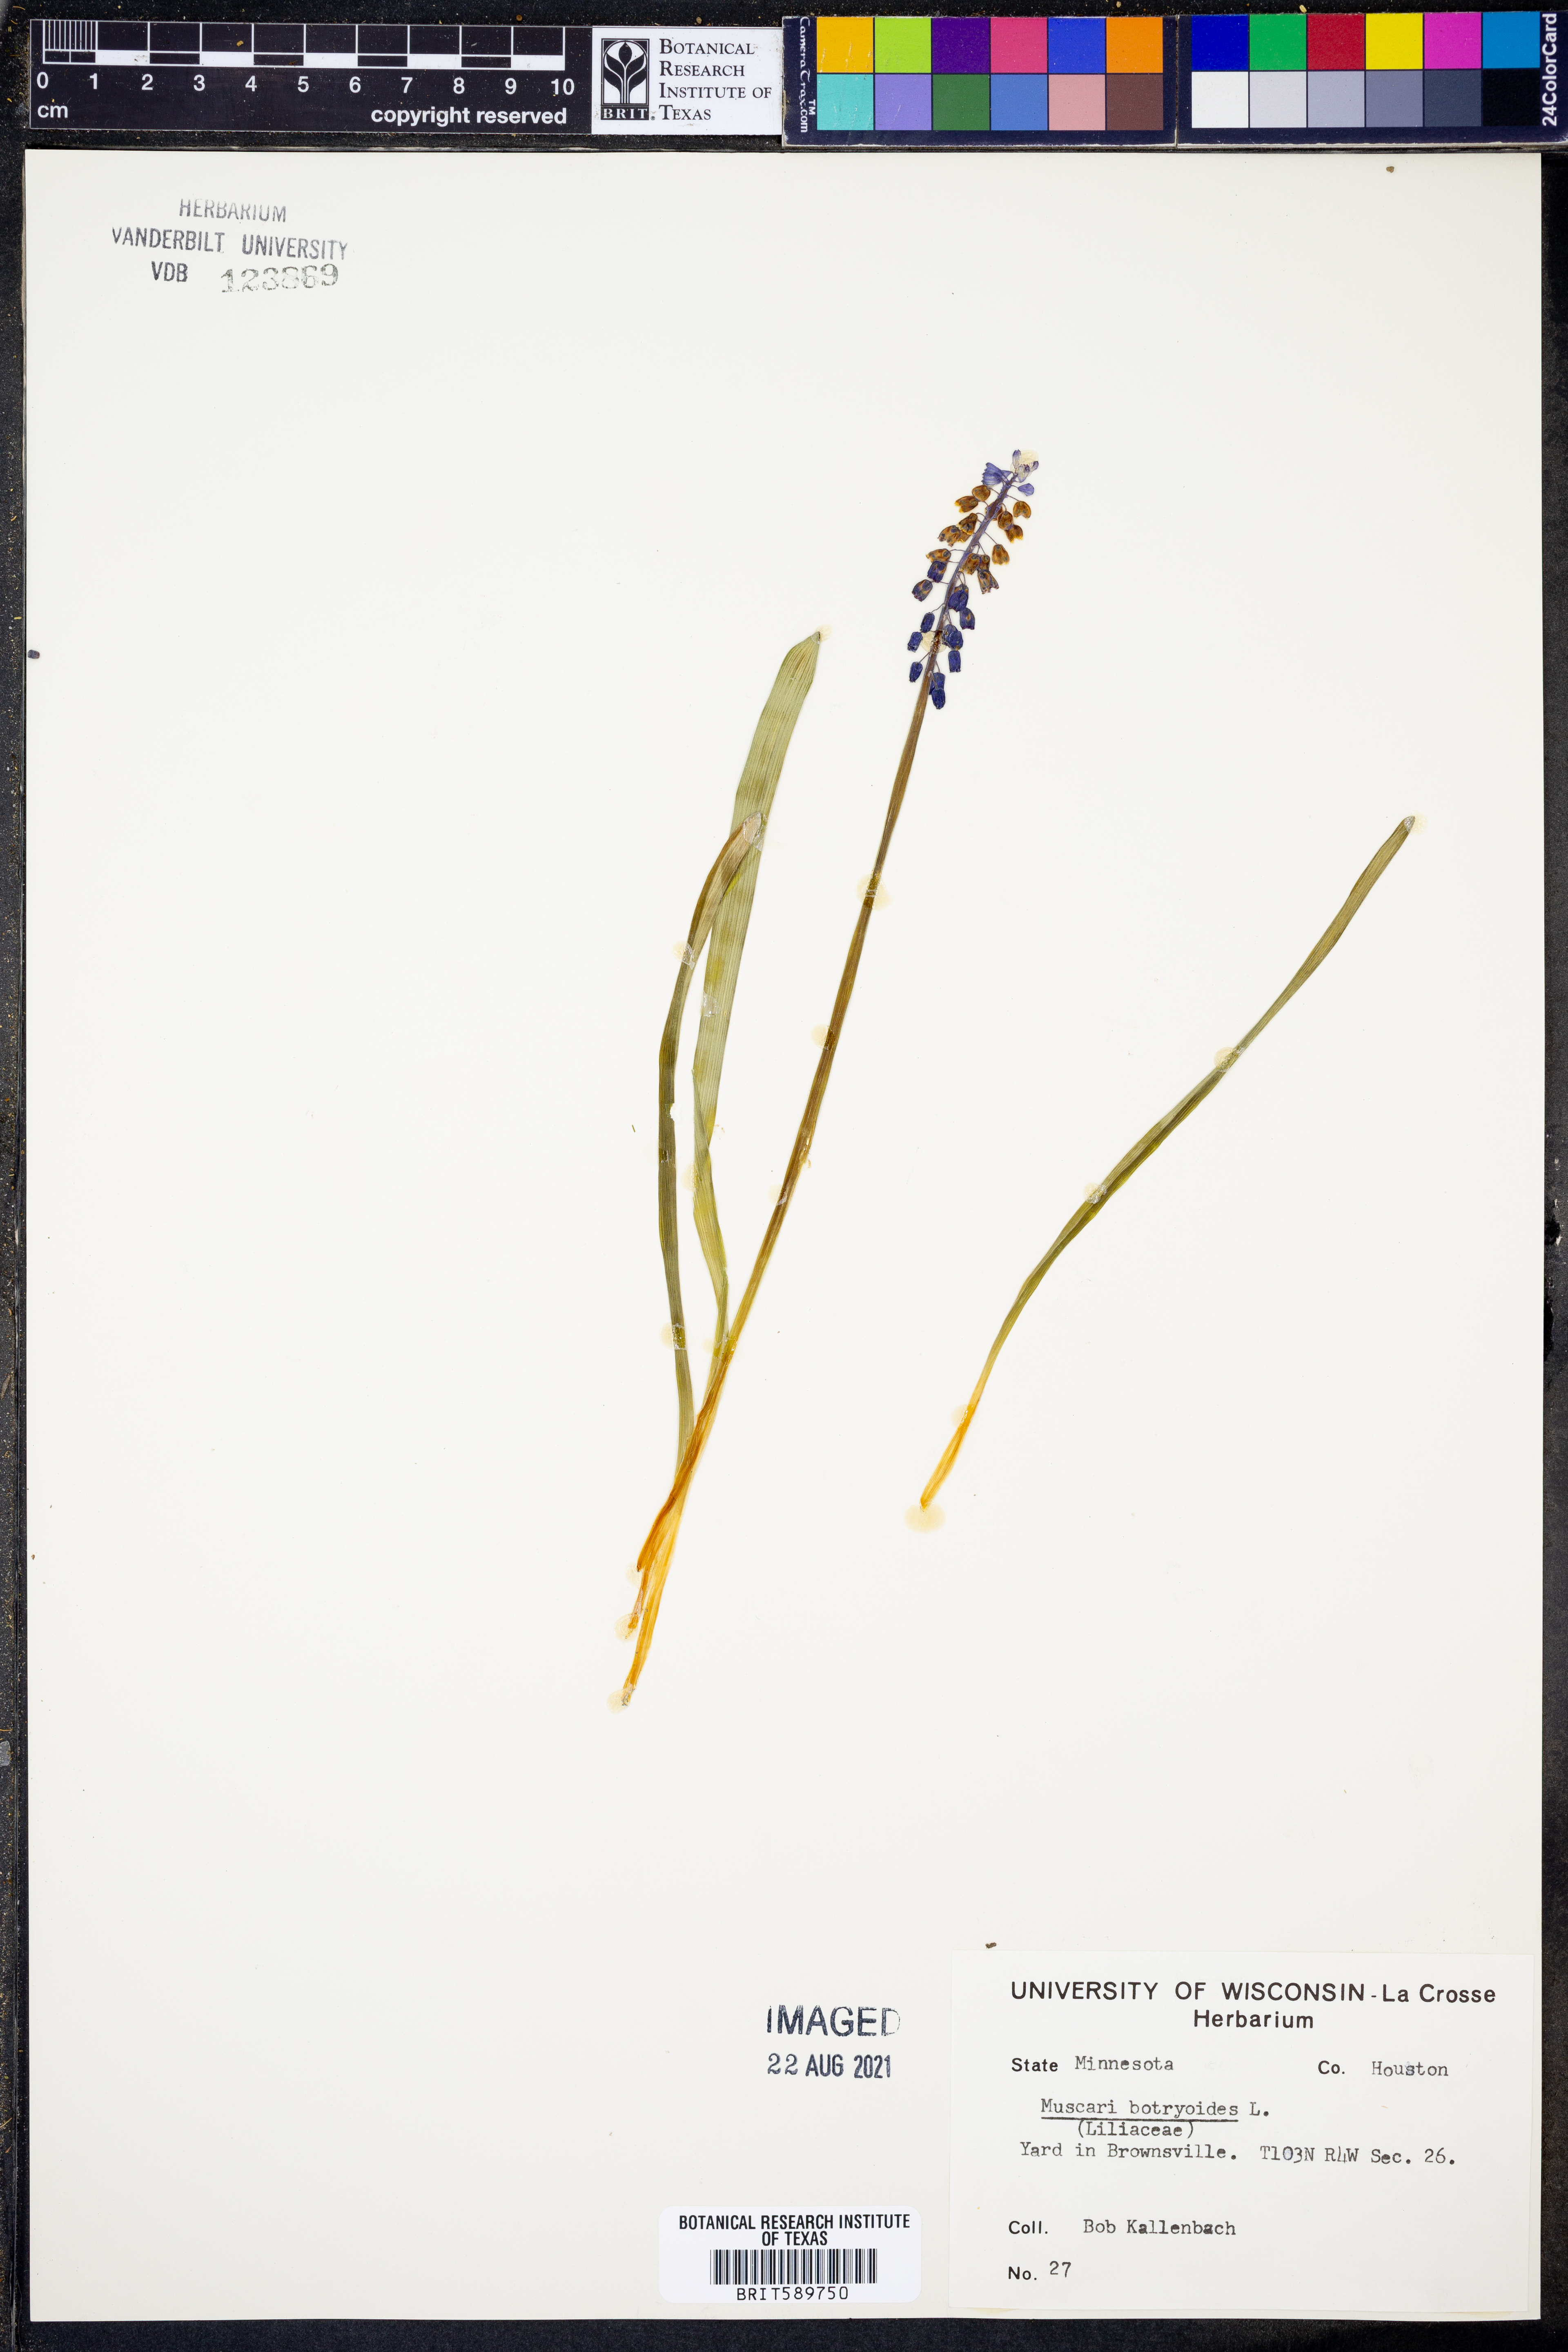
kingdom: Plantae
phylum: Tracheophyta
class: Liliopsida
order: Asparagales
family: Asparagaceae
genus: Muscari
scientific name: Muscari botryoides
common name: Compact grape-hyacinth
